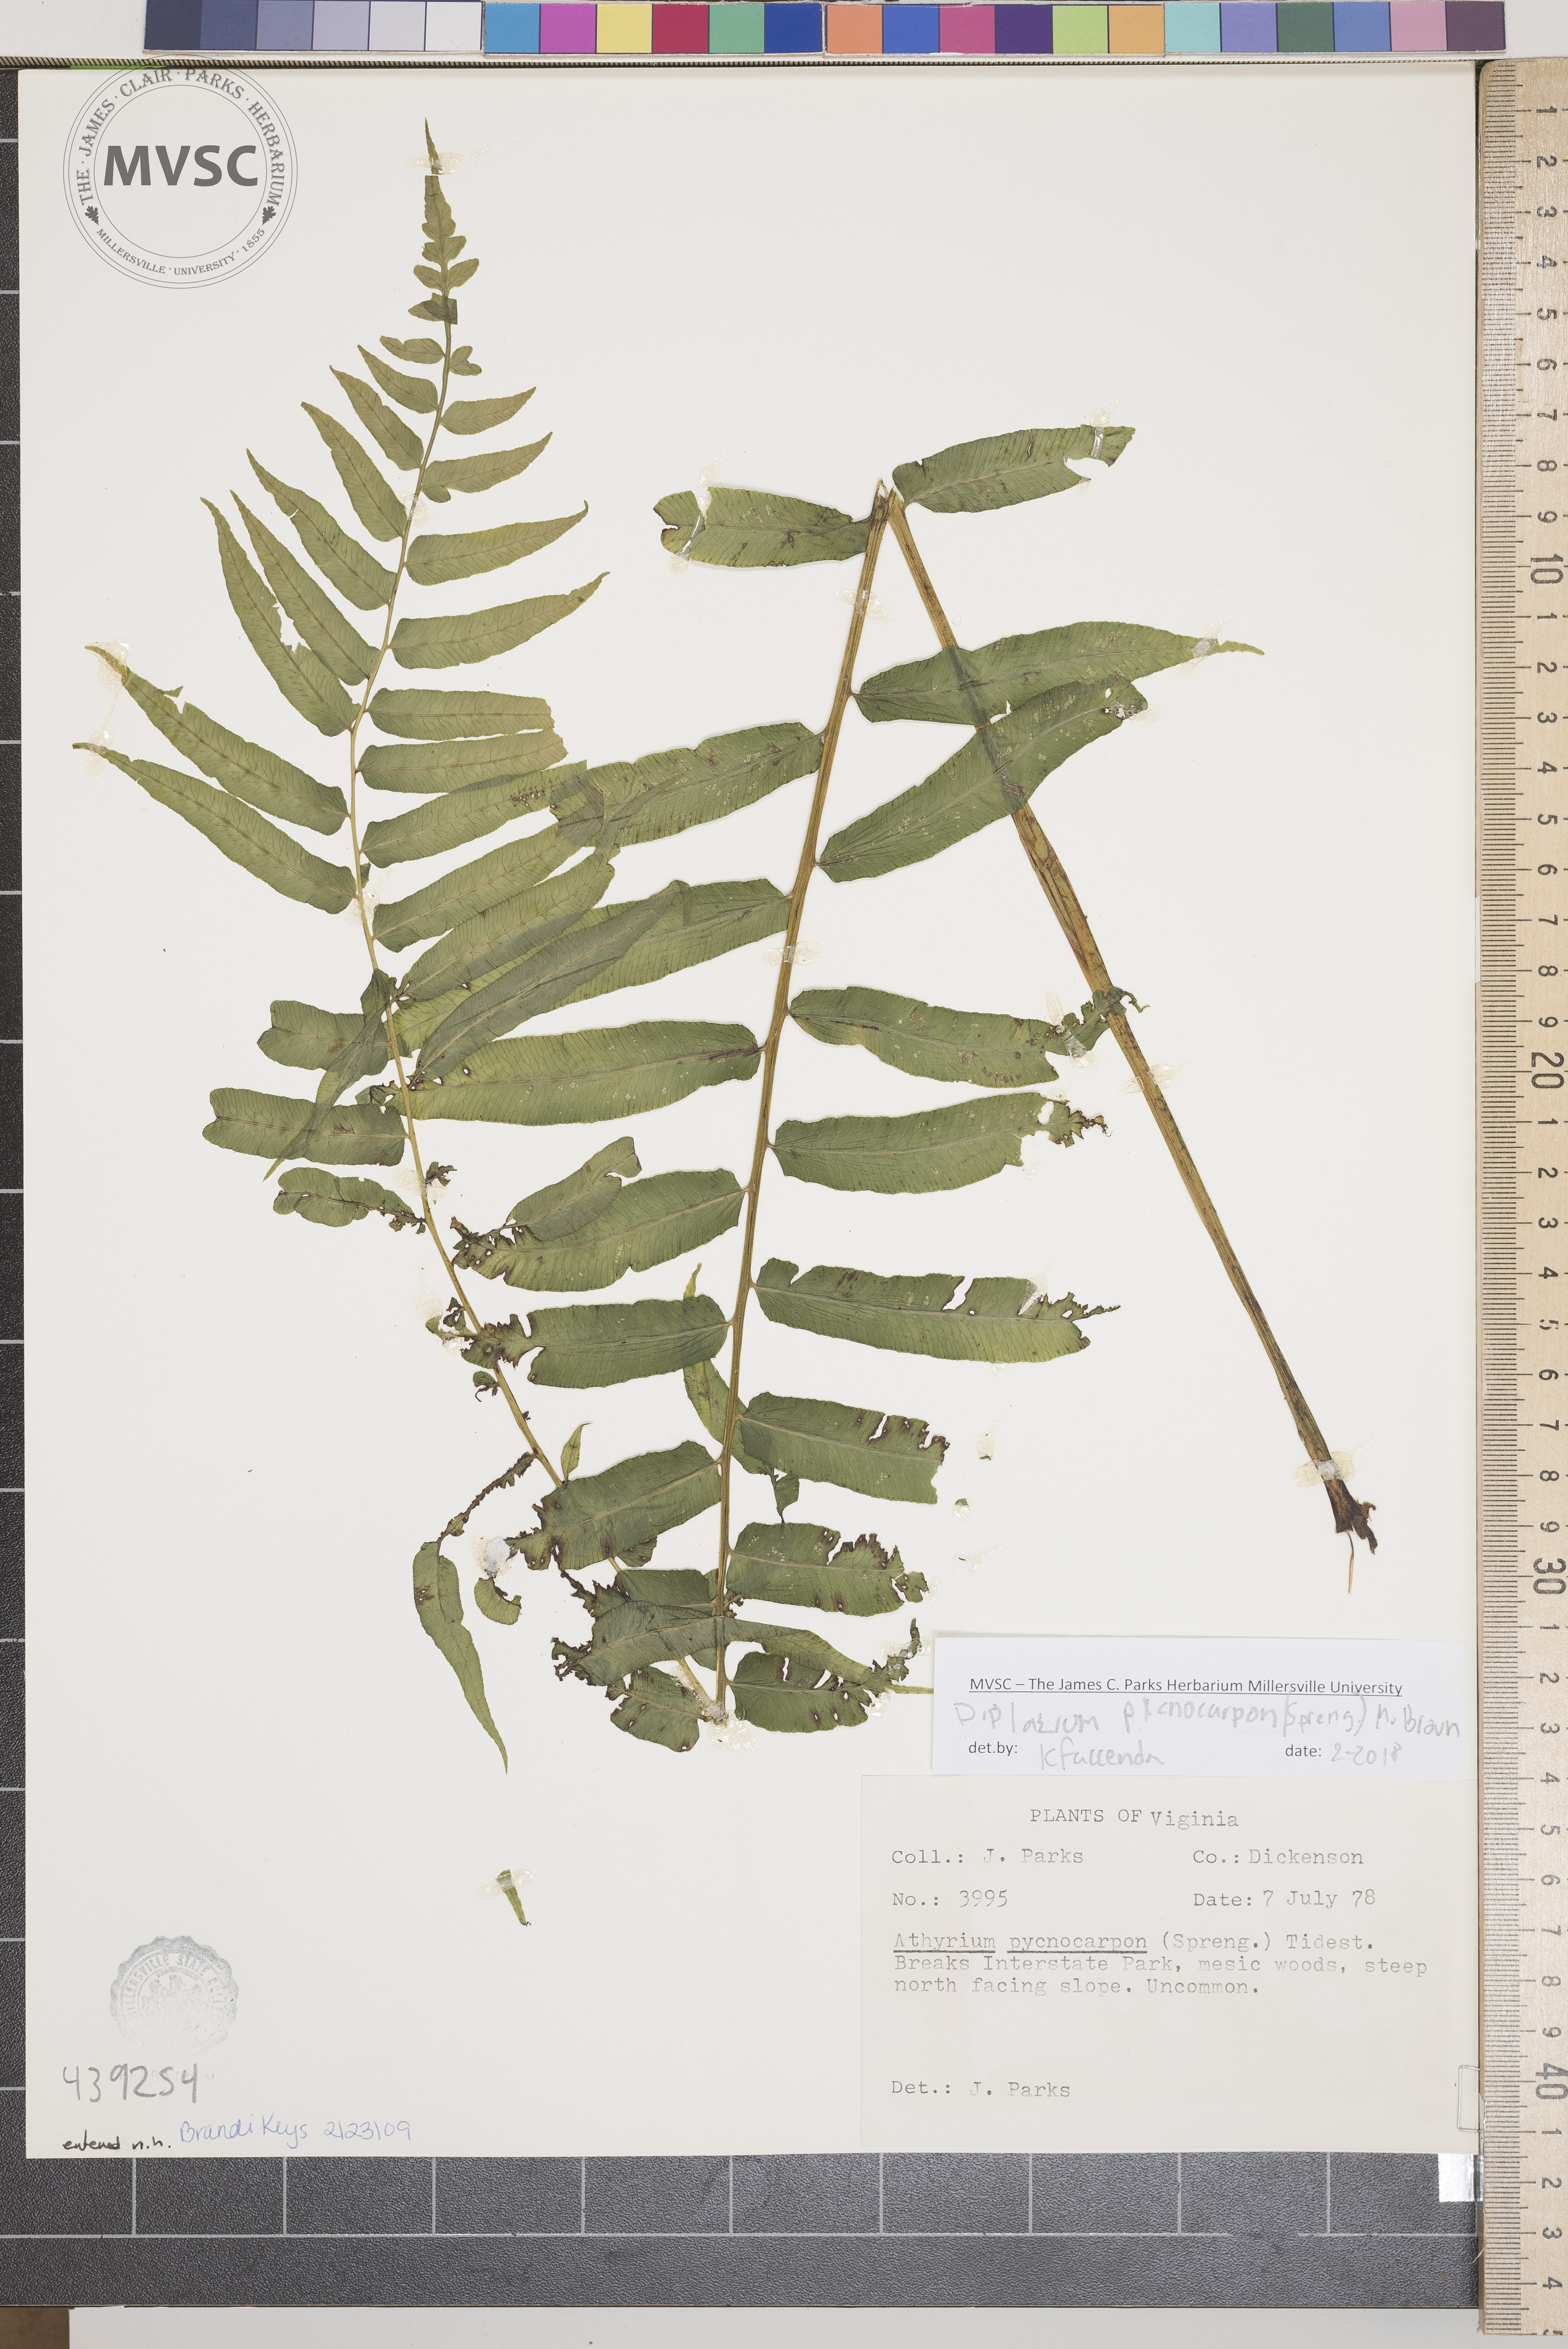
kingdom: Plantae
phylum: Tracheophyta
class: Polypodiopsida
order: Polypodiales
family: Diplaziopsidaceae
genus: Homalosorus
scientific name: Homalosorus pycnocarpos
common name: Glade Fern
